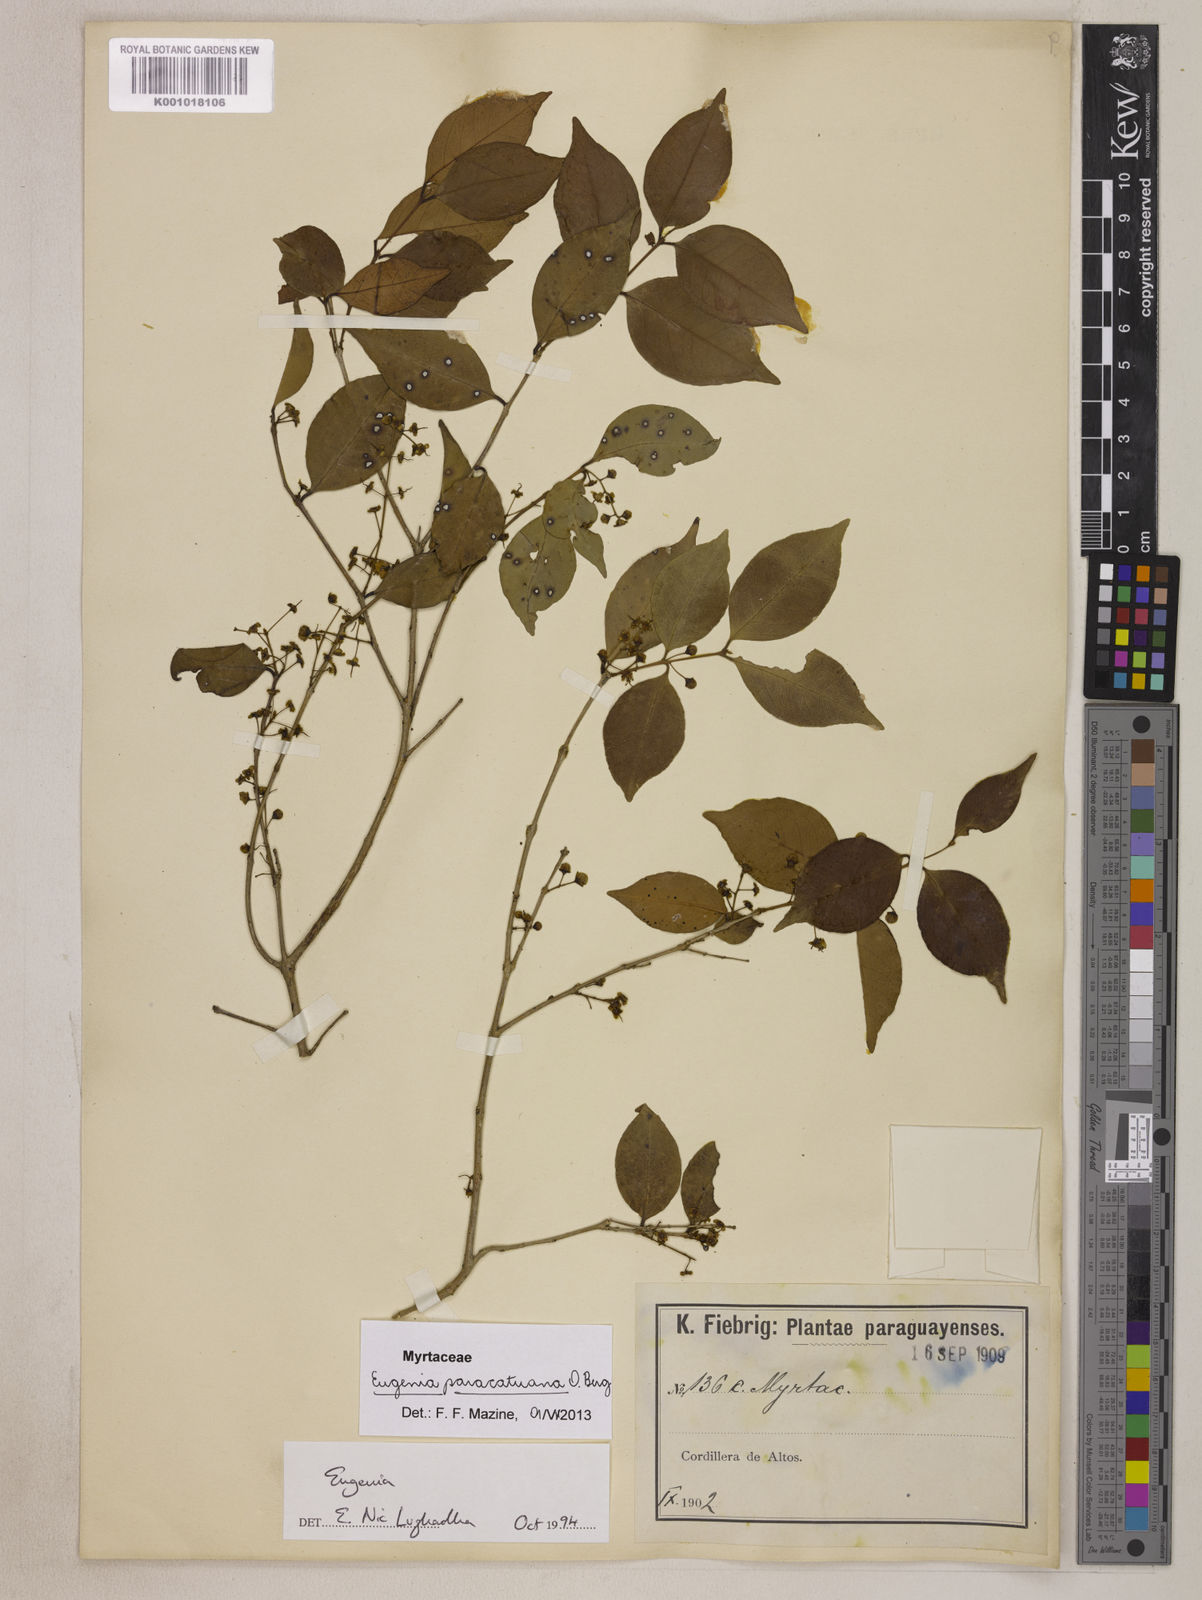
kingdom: Plantae
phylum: Tracheophyta
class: Magnoliopsida
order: Myrtales
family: Myrtaceae
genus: Eugenia
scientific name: Eugenia moraviana
